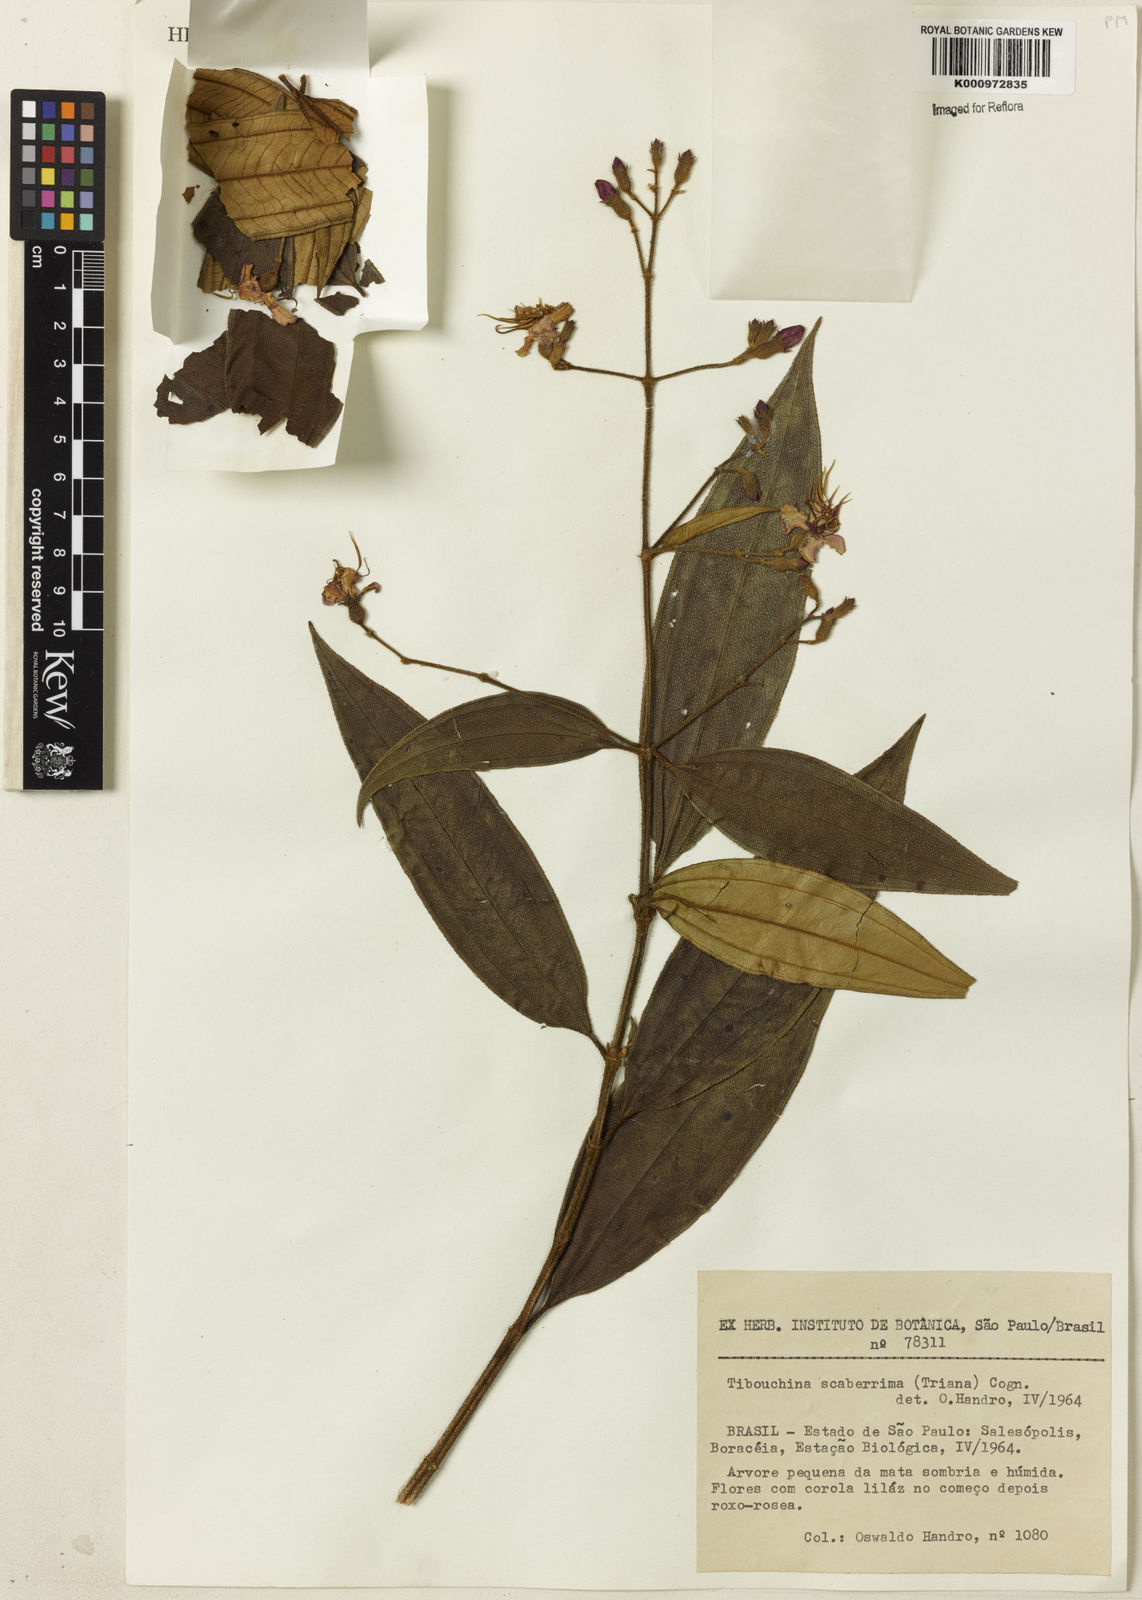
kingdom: Plantae
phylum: Tracheophyta
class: Magnoliopsida
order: Myrtales
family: Melastomataceae
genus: Pleroma
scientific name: Pleroma scaberrimum
